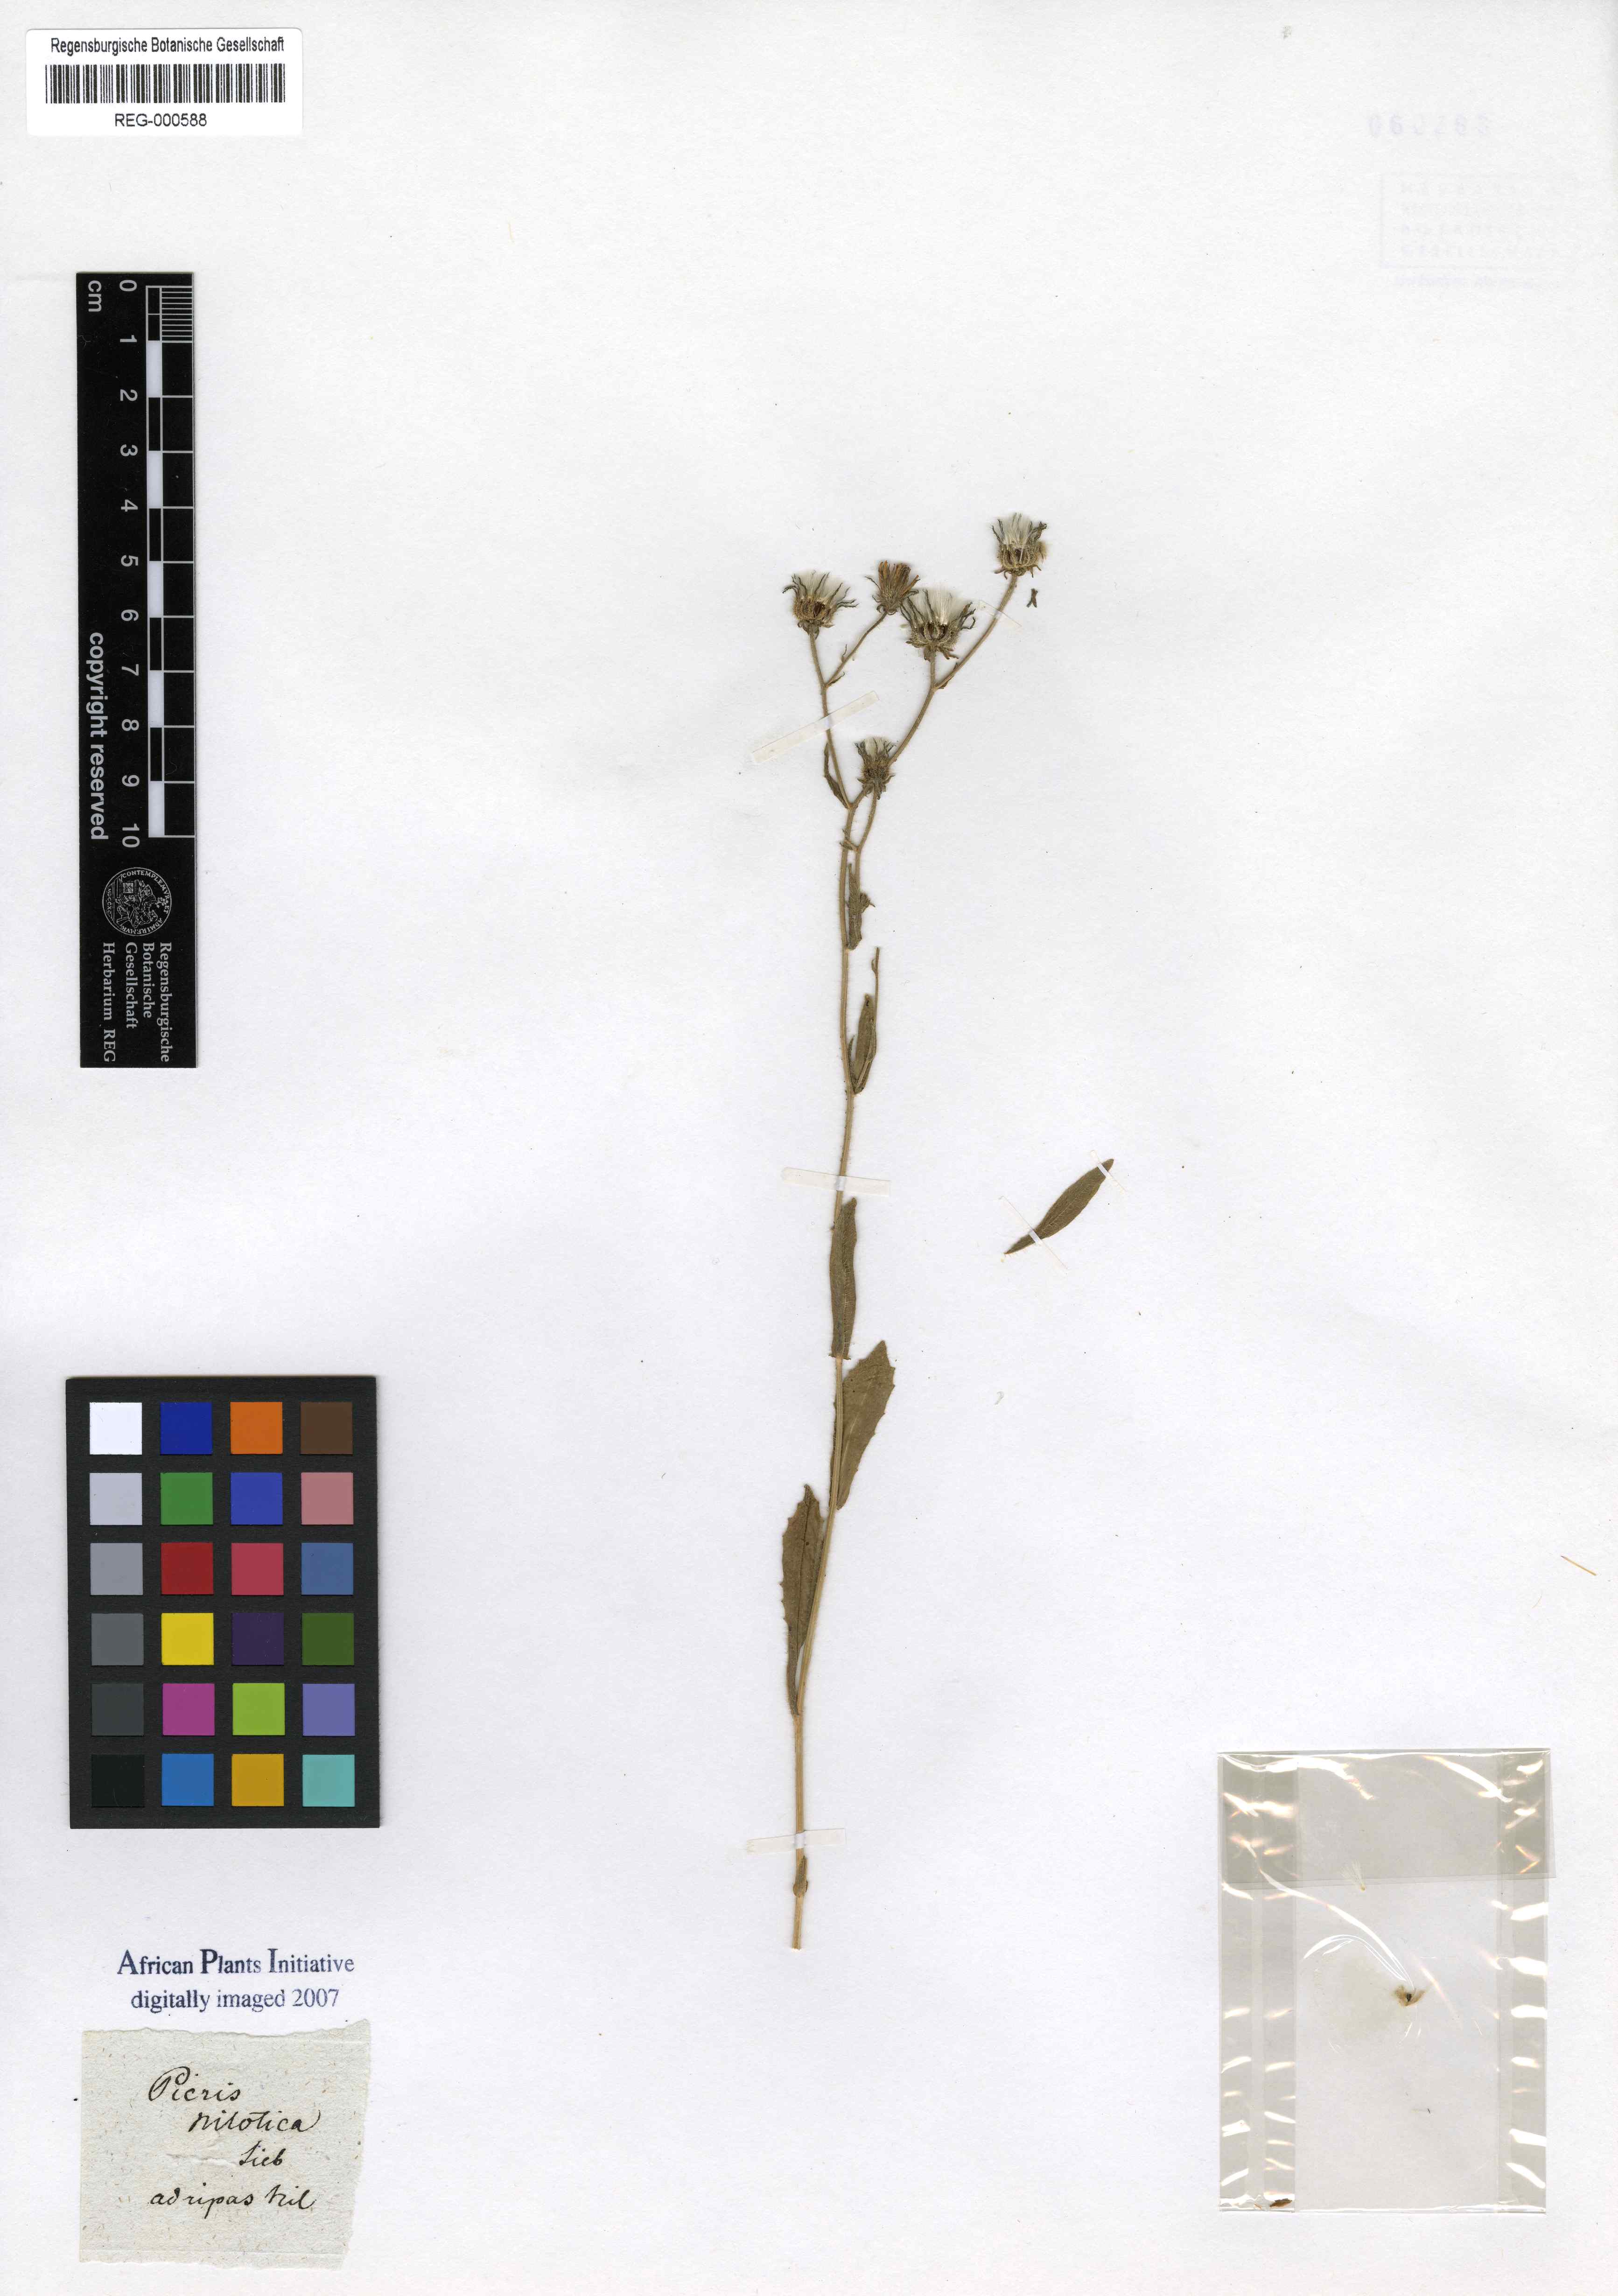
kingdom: Plantae
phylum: Tracheophyta
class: Magnoliopsida
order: Asterales
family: Asteraceae
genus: Picris
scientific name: Picris sulphurea
